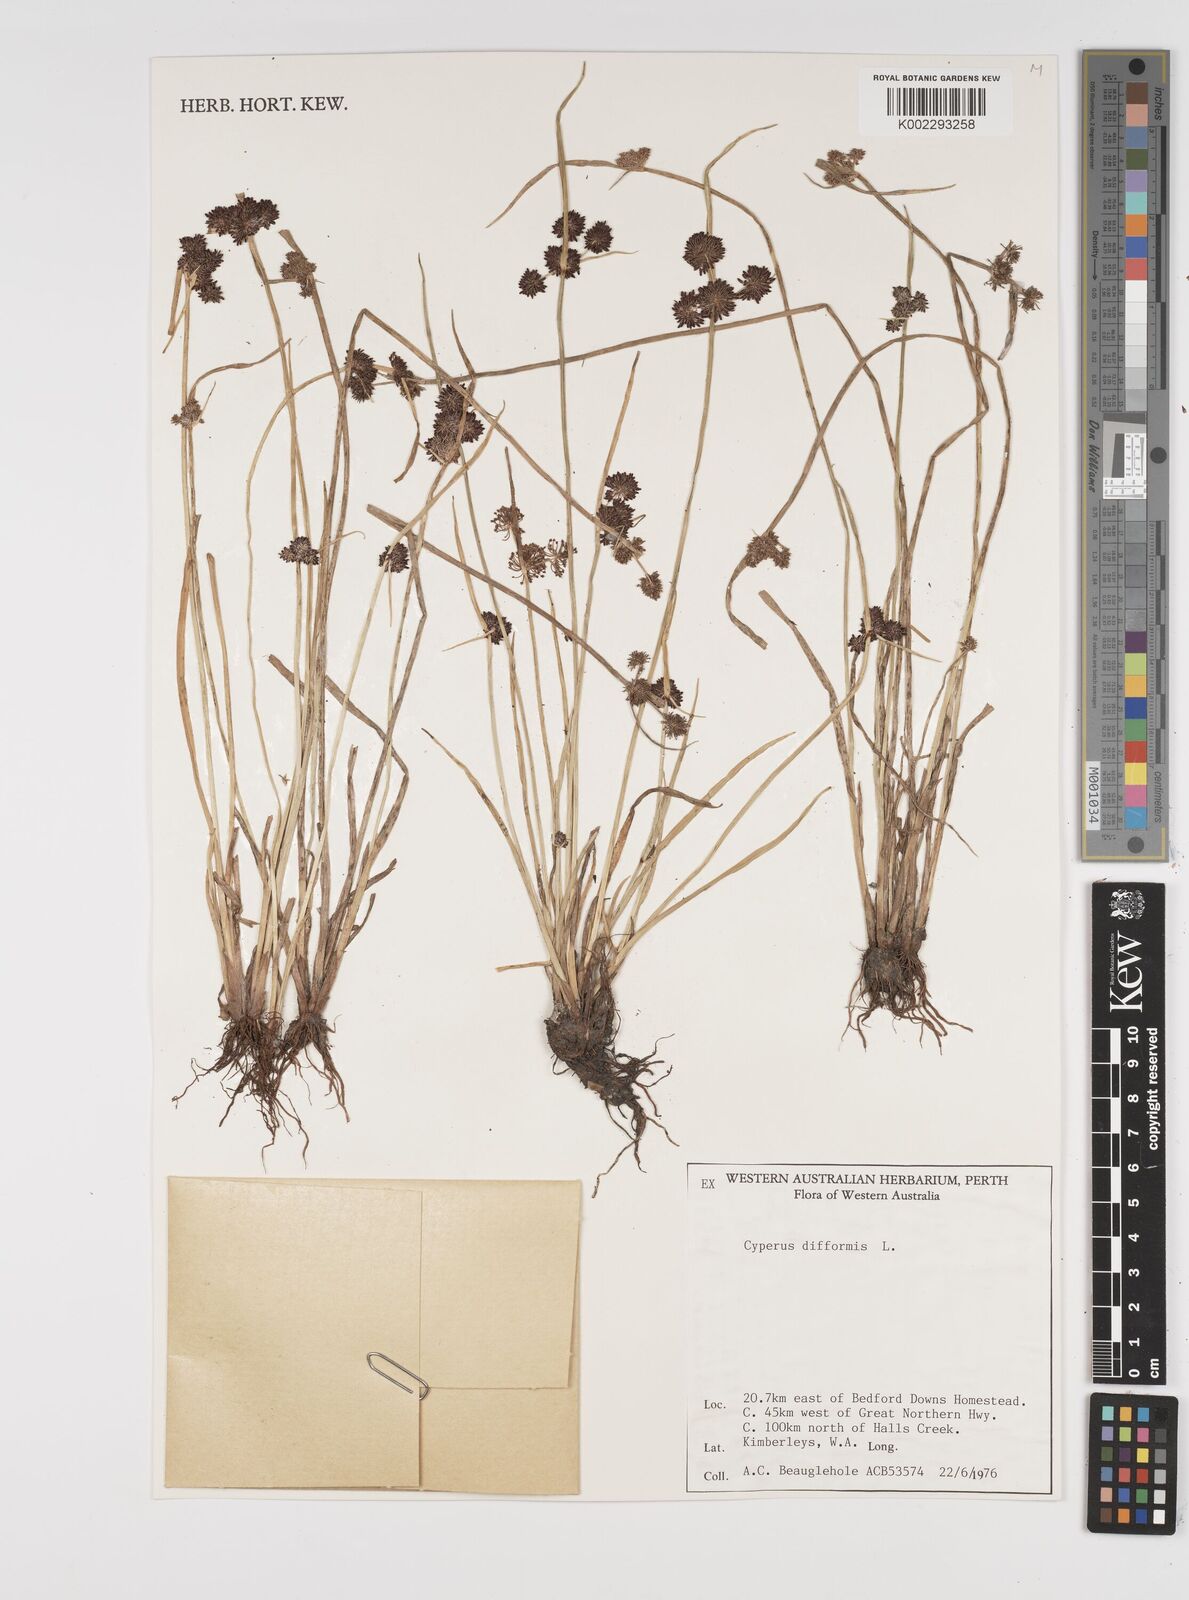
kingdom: Plantae
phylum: Tracheophyta
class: Liliopsida
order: Poales
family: Cyperaceae
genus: Cyperus
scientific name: Cyperus difformis
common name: Variable flatsedge
